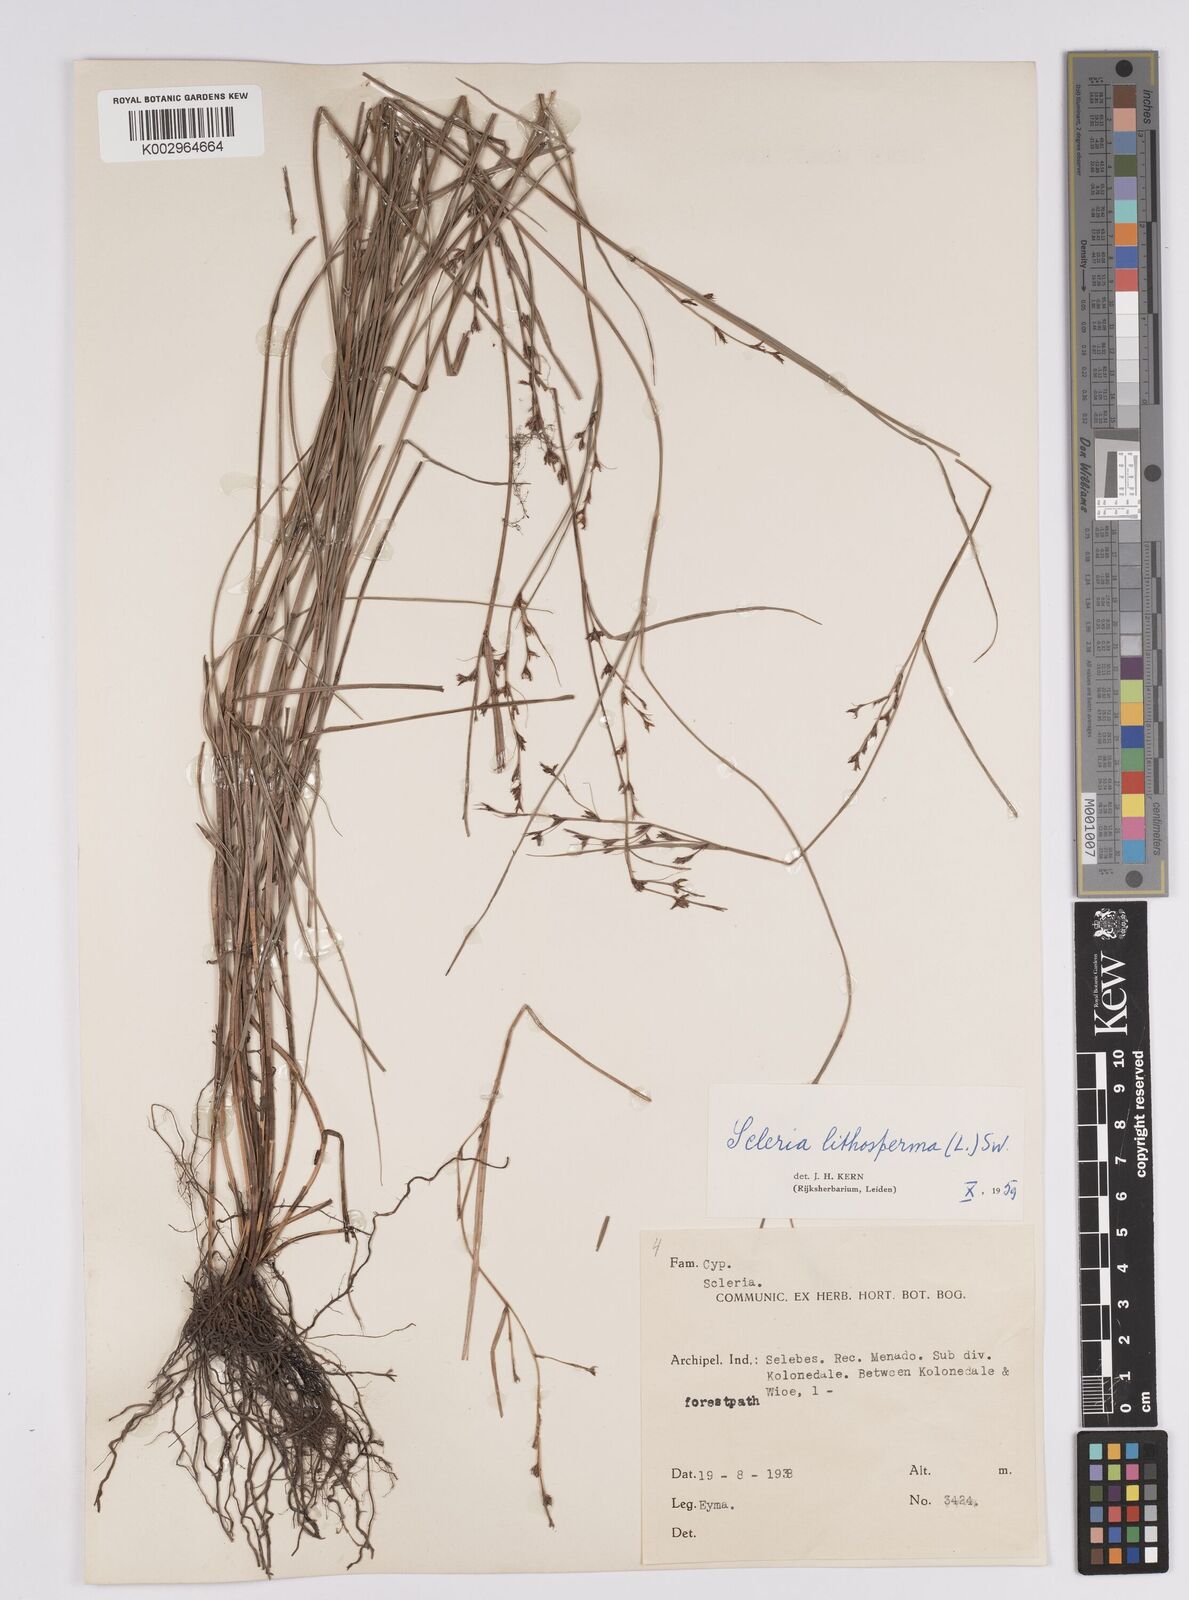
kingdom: Plantae
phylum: Tracheophyta
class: Liliopsida
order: Poales
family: Cyperaceae
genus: Scleria
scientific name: Scleria lithosperma
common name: Florida keys nut-rush
